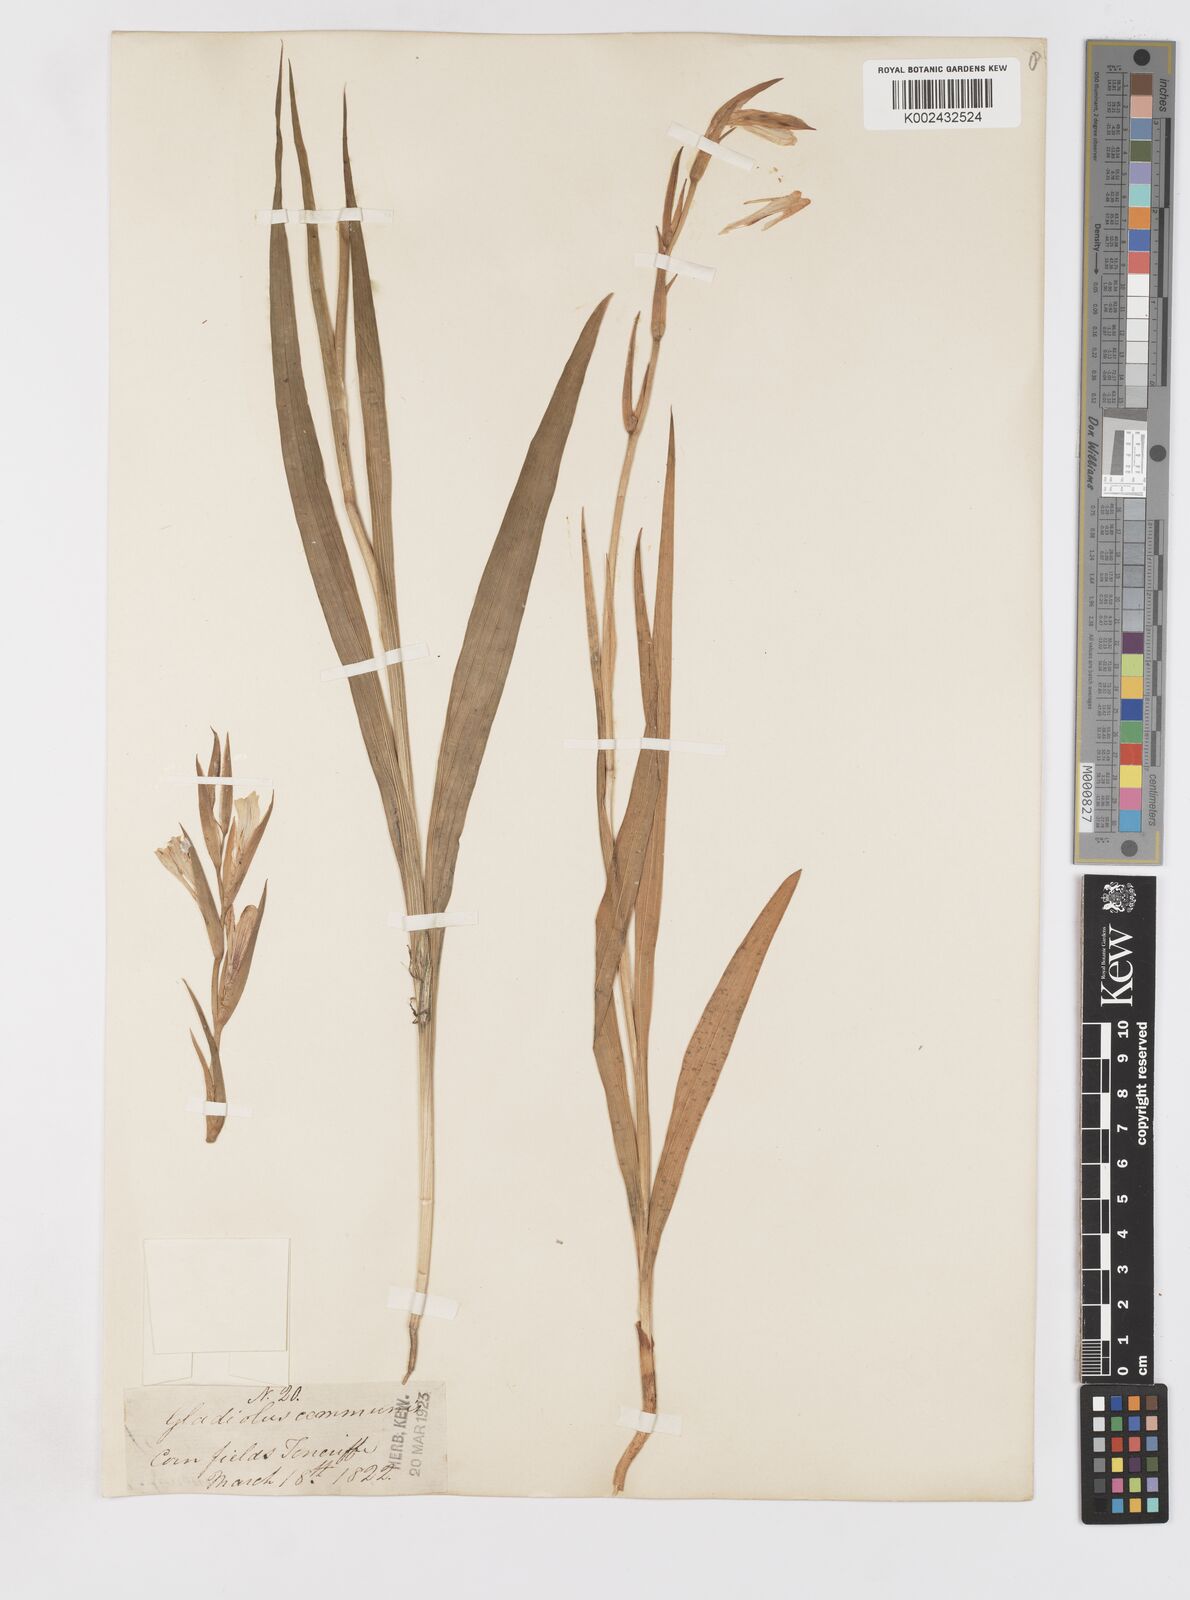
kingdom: Plantae
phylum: Tracheophyta
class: Liliopsida
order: Asparagales
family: Iridaceae
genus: Gladiolus
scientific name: Gladiolus communis
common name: Eastern gladiolus
